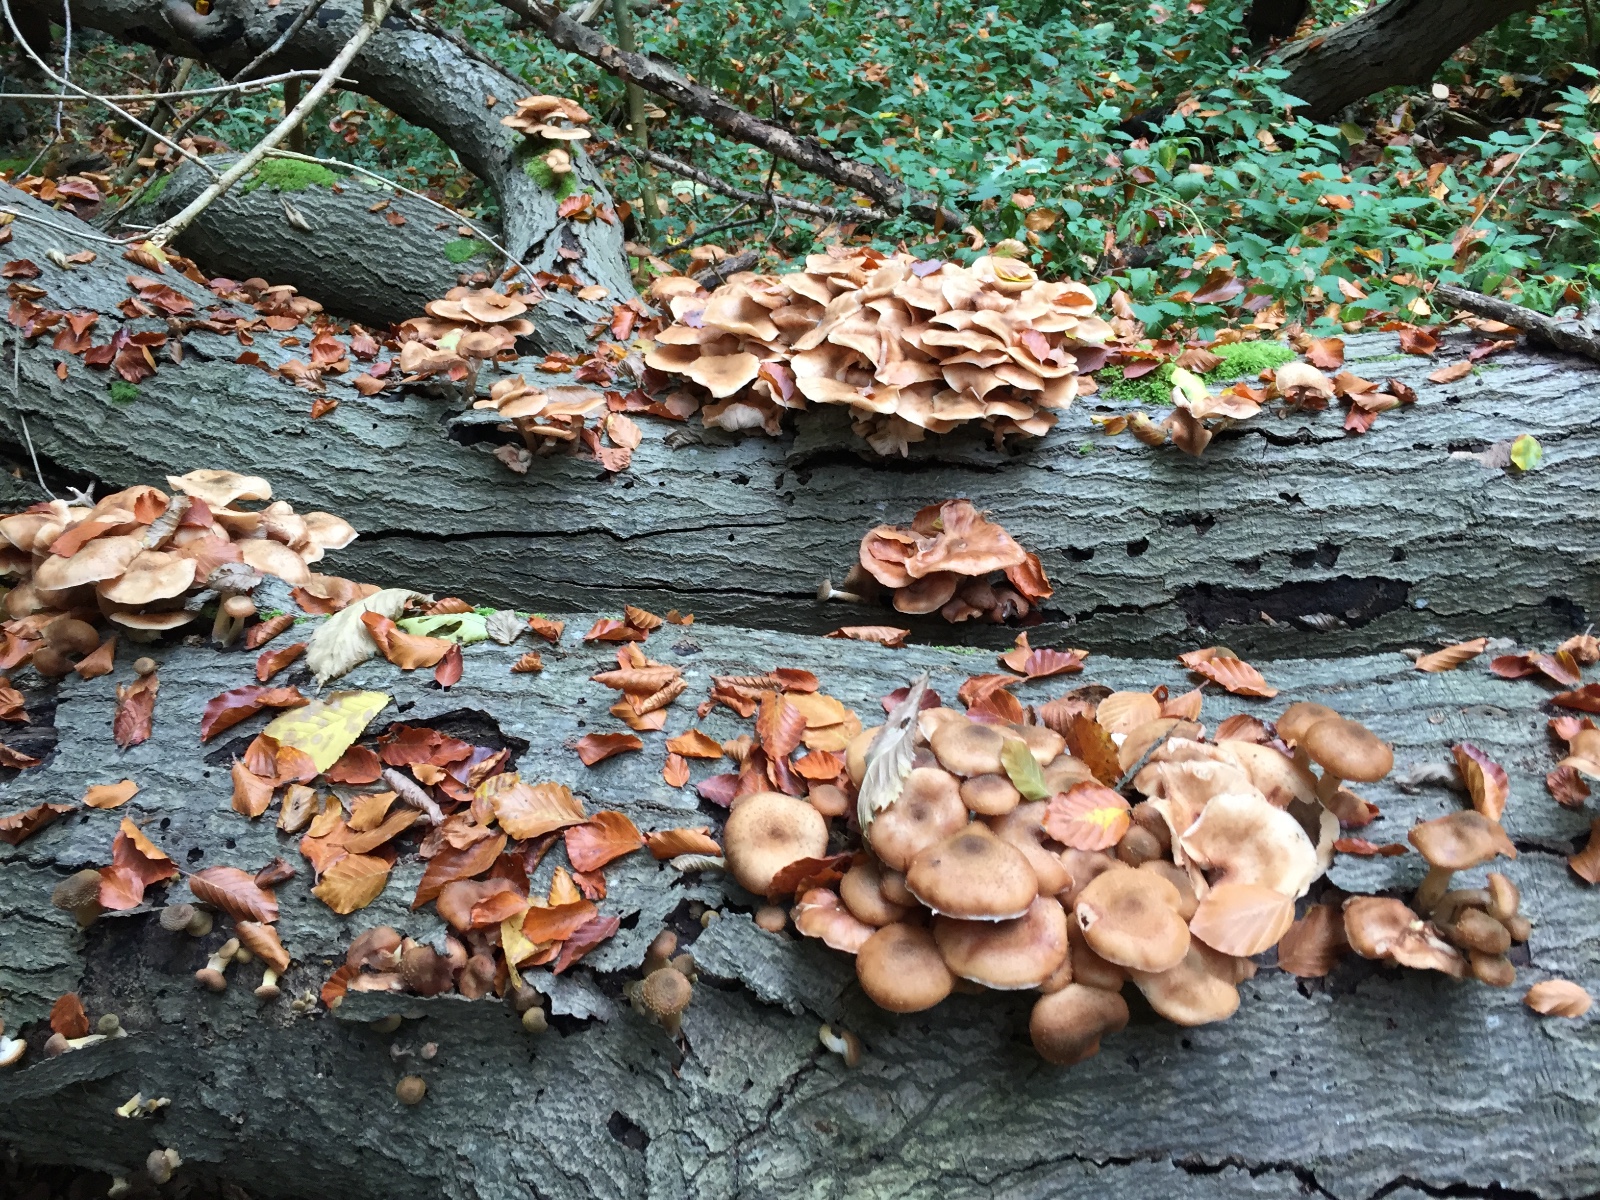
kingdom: Fungi
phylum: Basidiomycota
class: Agaricomycetes
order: Agaricales
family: Physalacriaceae
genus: Armillaria
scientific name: Armillaria lutea
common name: køllestokket honningsvamp
